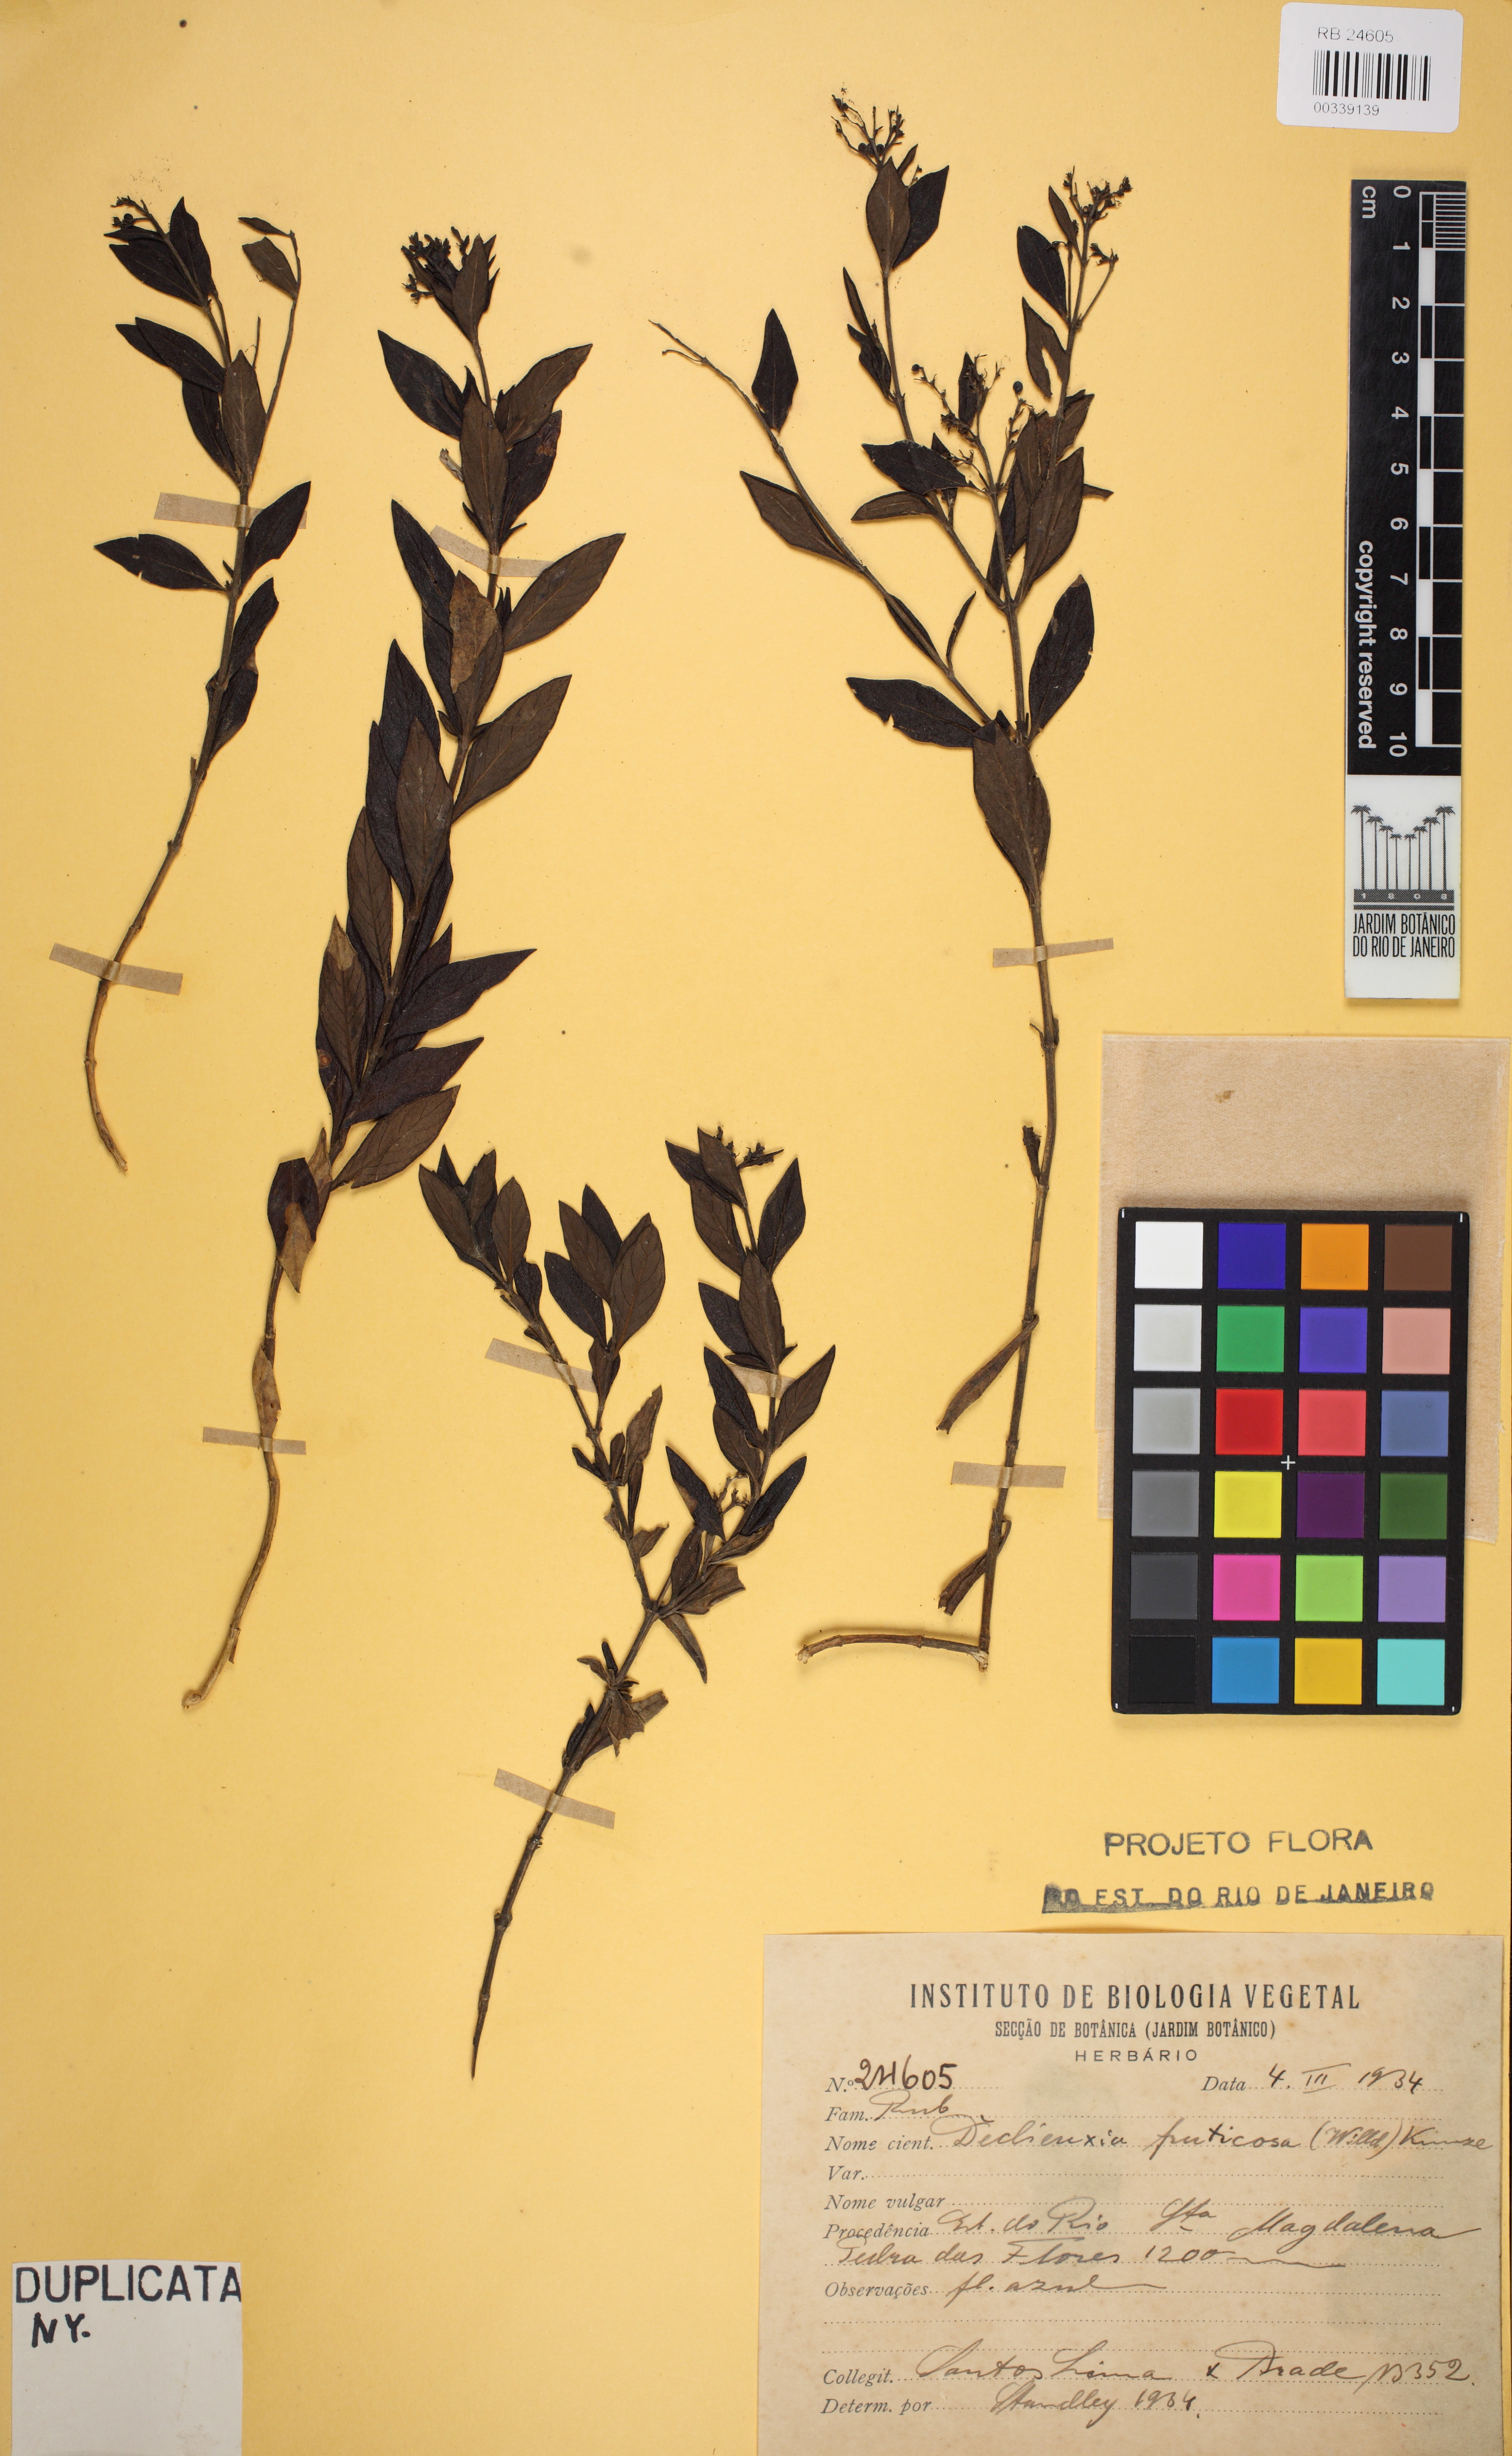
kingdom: Plantae
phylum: Tracheophyta
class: Magnoliopsida
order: Gentianales
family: Rubiaceae
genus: Declieuxia
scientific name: Declieuxia fruticosa
